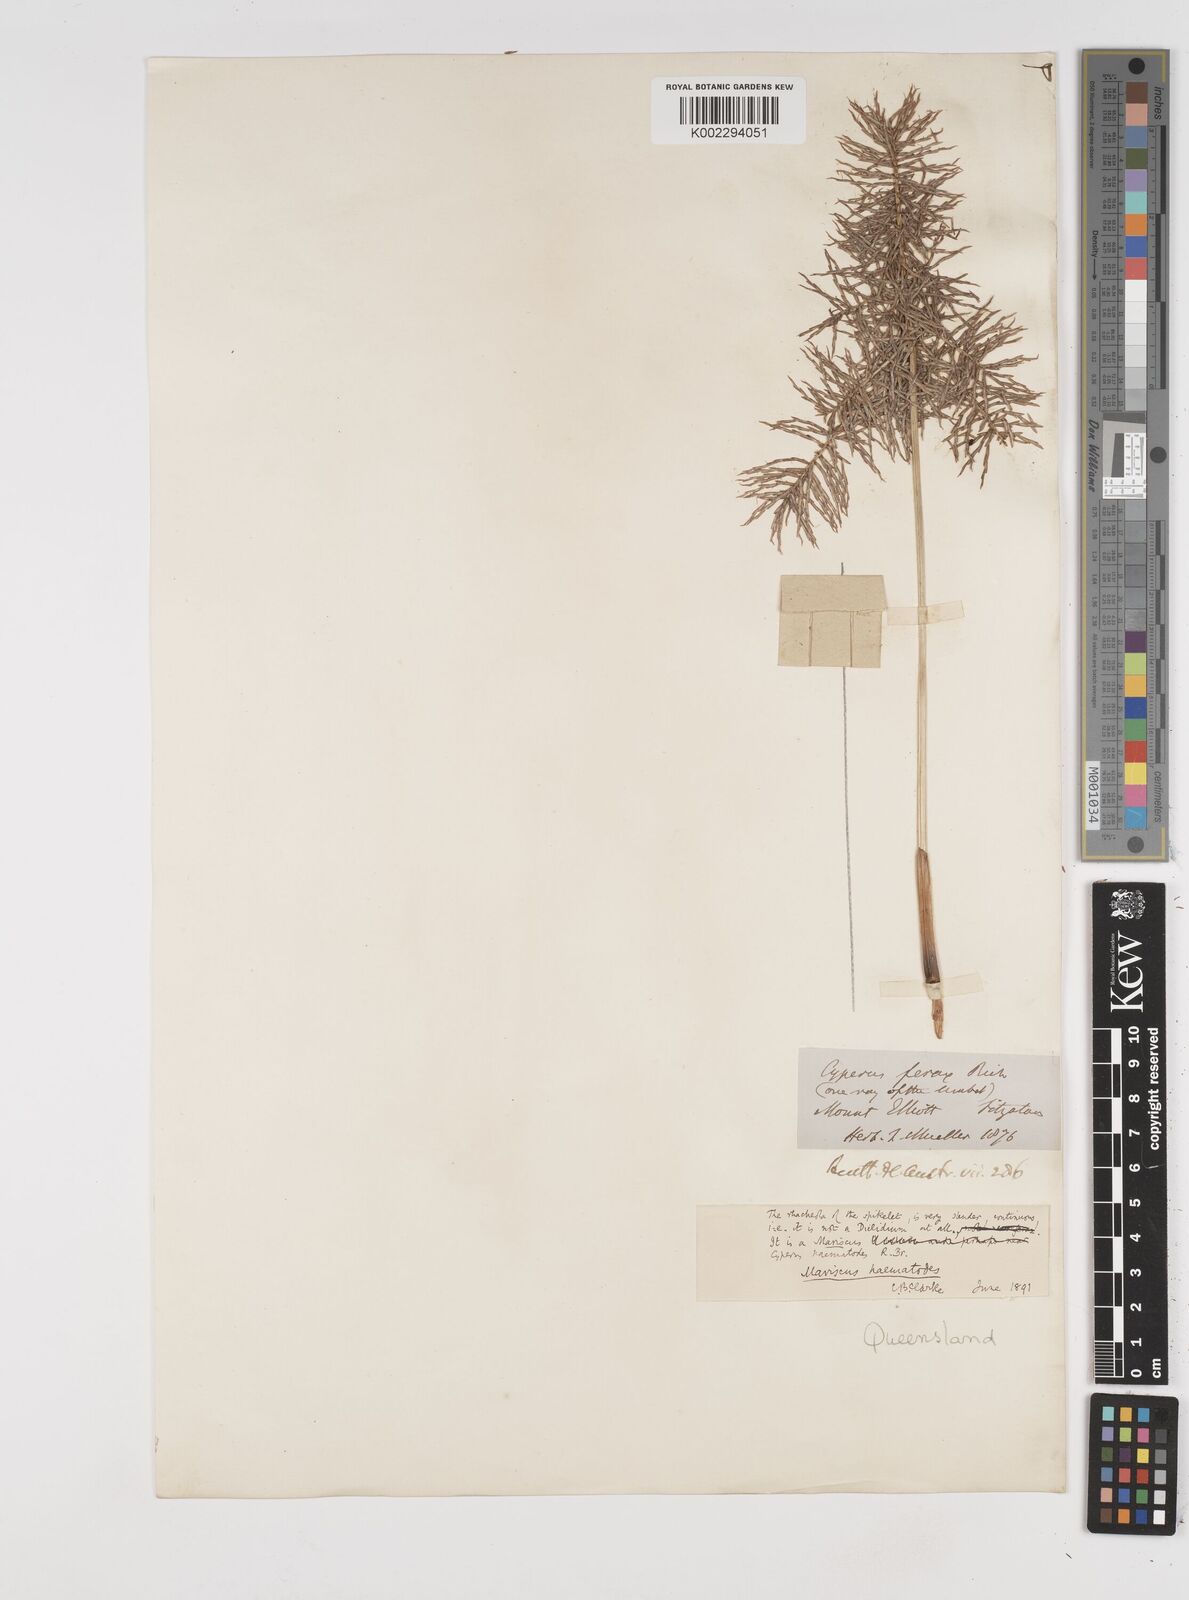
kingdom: Plantae
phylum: Tracheophyta
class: Liliopsida
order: Poales
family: Cyperaceae
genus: Cyperus
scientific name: Cyperus lucidus
